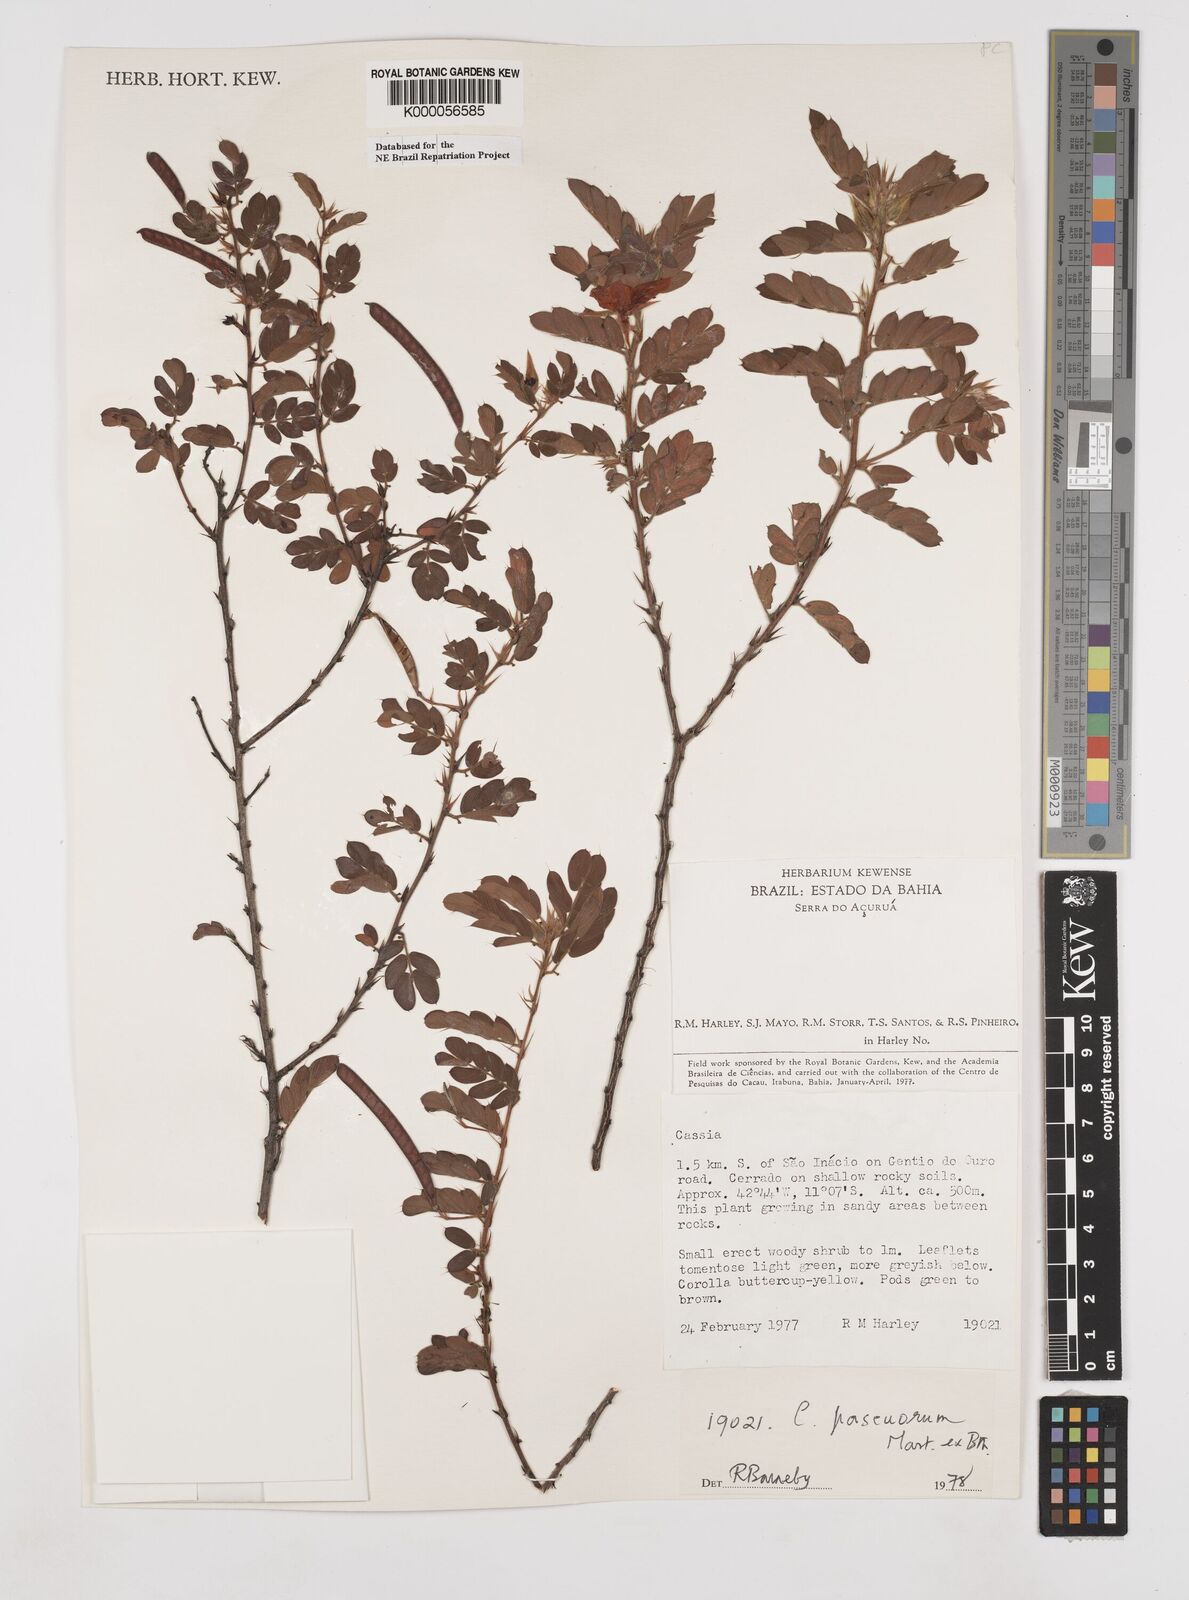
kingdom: Plantae
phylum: Tracheophyta
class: Magnoliopsida
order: Fabales
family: Fabaceae
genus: Chamaecrista
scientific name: Chamaecrista pascuorum
